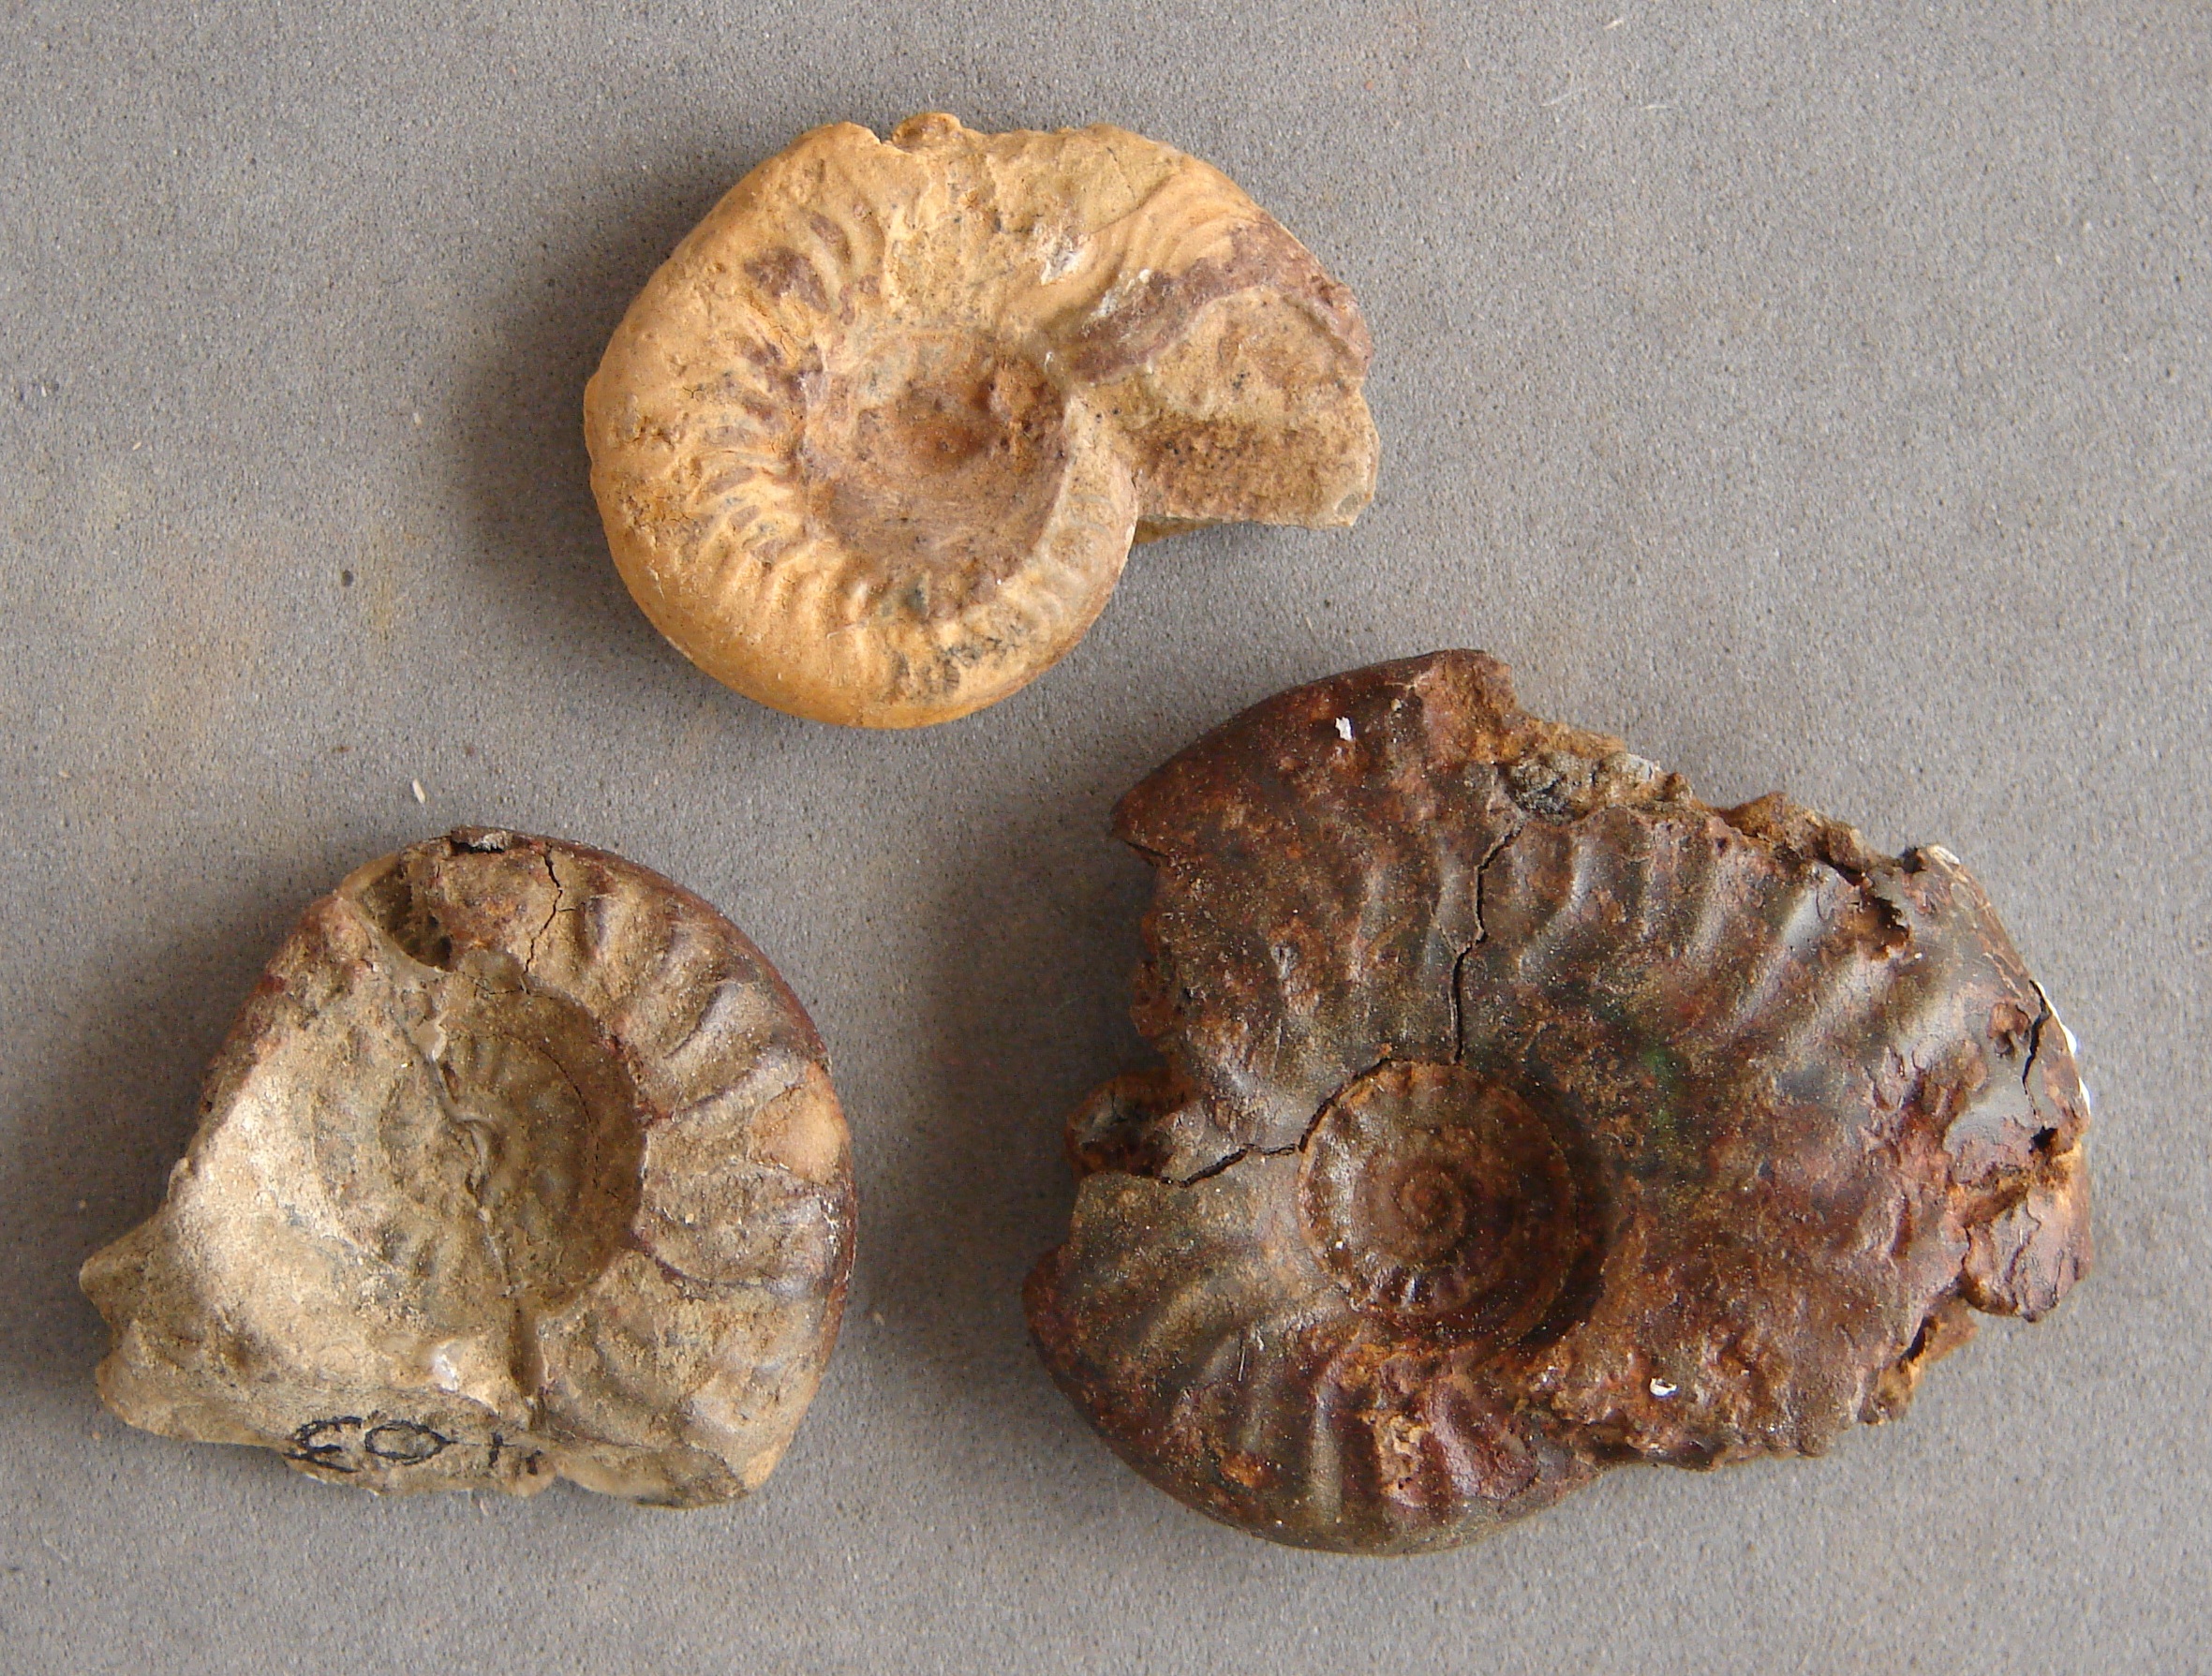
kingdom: Animalia
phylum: Mollusca
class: Cephalopoda
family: Graphoceratidae
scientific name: Graphoceratidae
